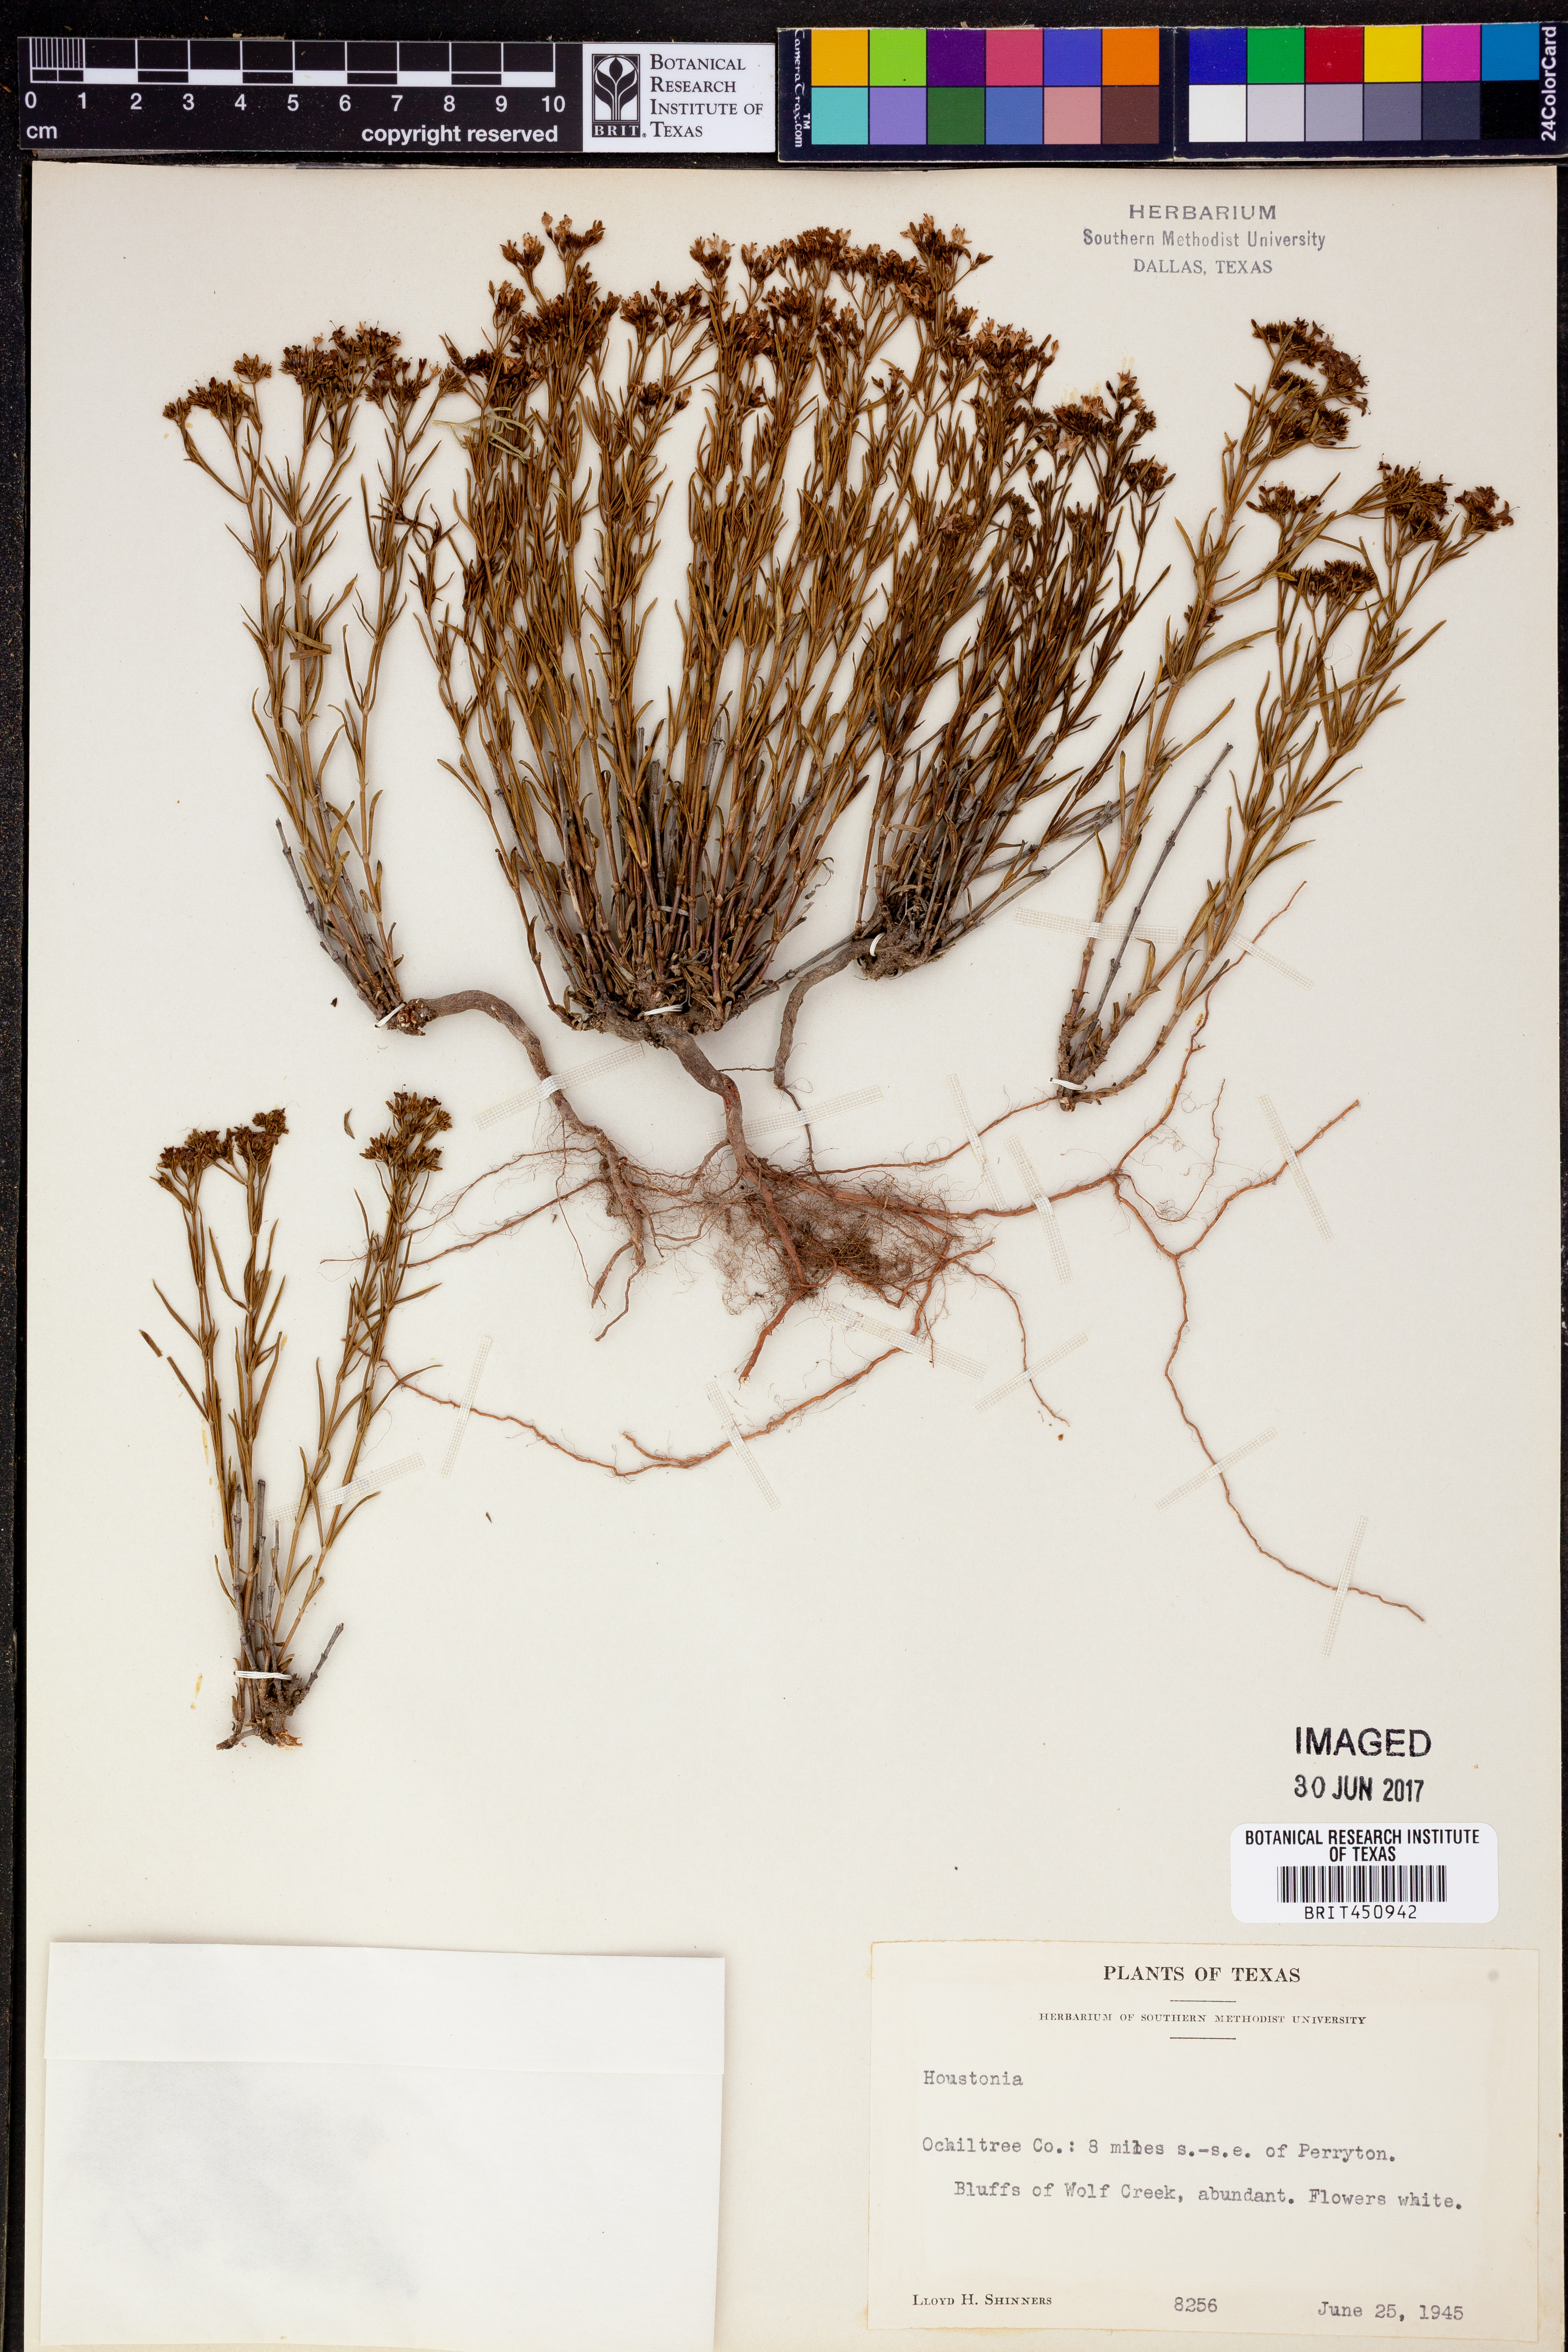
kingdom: Plantae
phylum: Tracheophyta
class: Magnoliopsida
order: Gentianales
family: Rubiaceae
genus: Houstonia
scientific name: Houstonia
